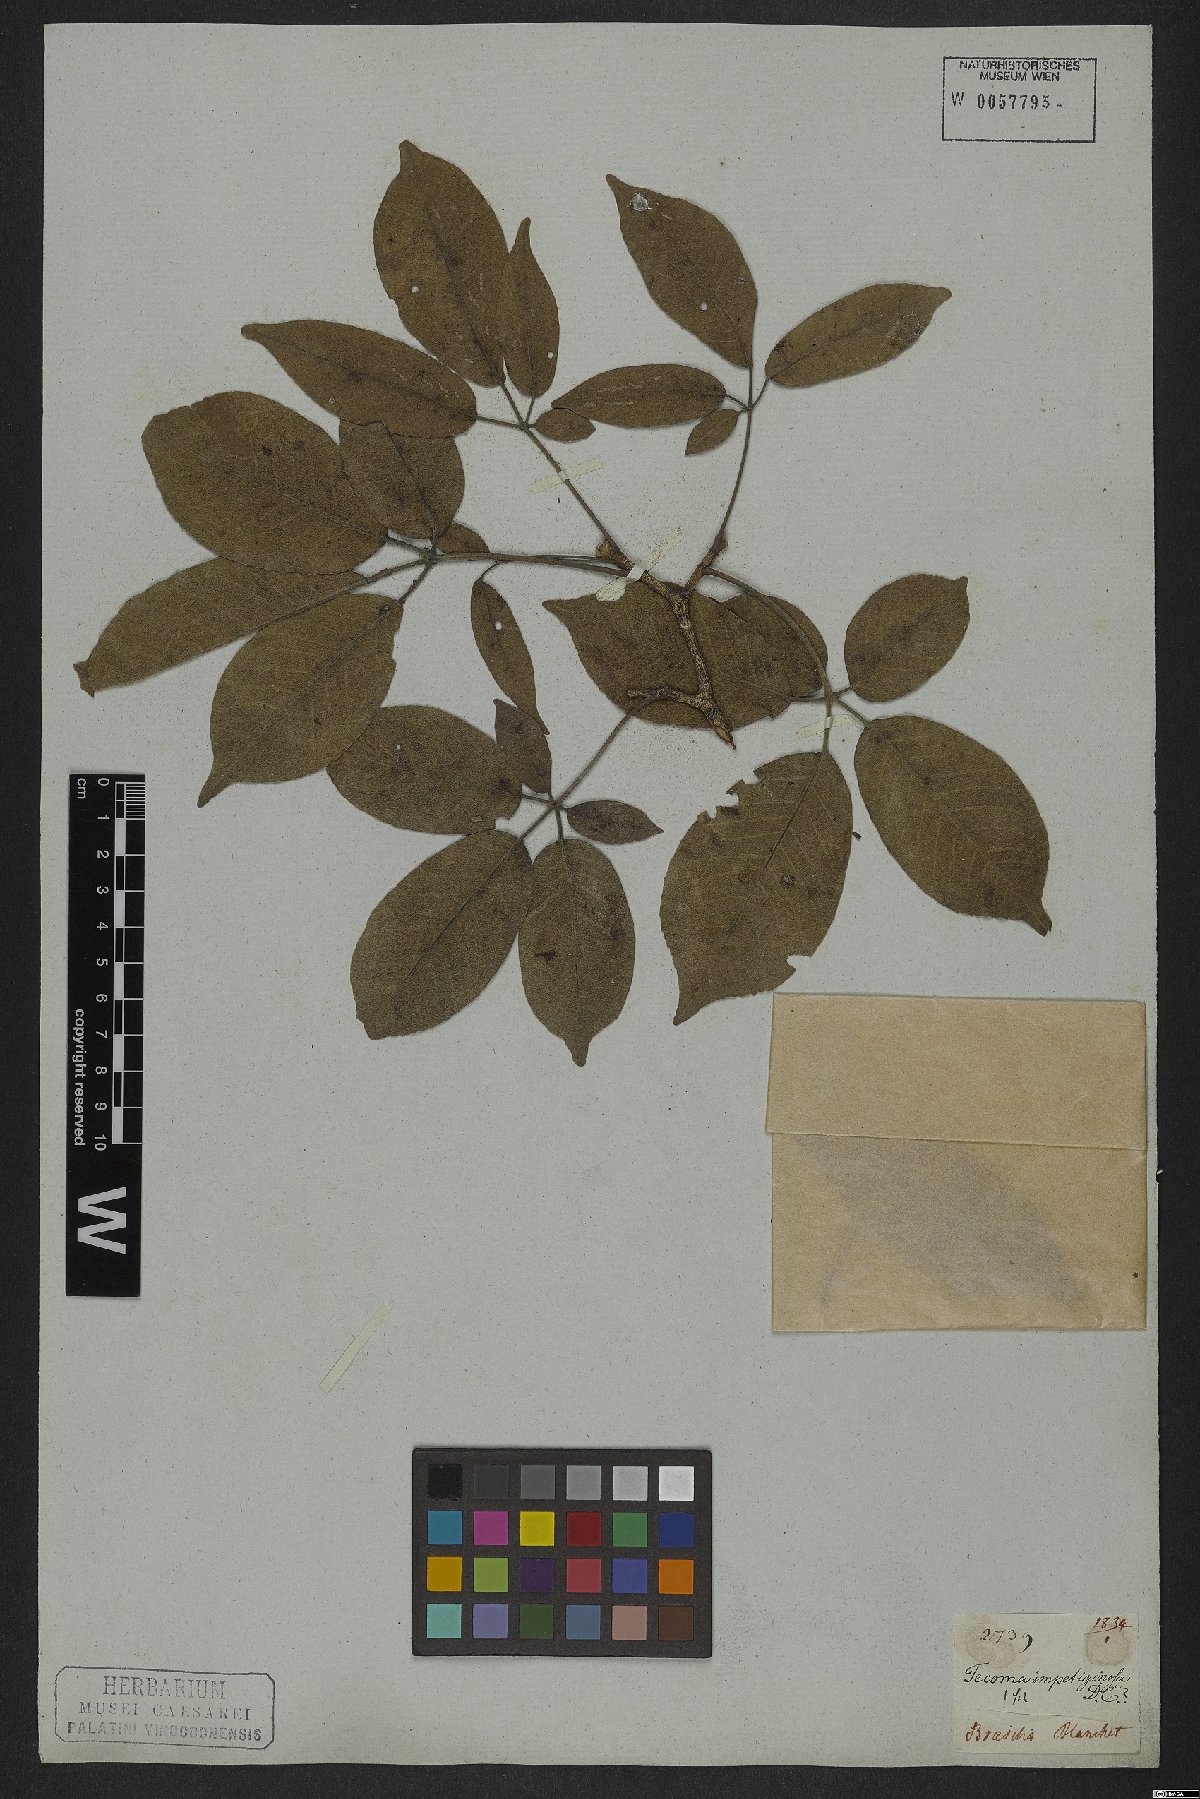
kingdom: Plantae
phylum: Tracheophyta
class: Magnoliopsida
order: Lamiales
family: Bignoniaceae
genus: Handroanthus
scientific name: Handroanthus impetiginosum
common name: Pink trumpet tree
